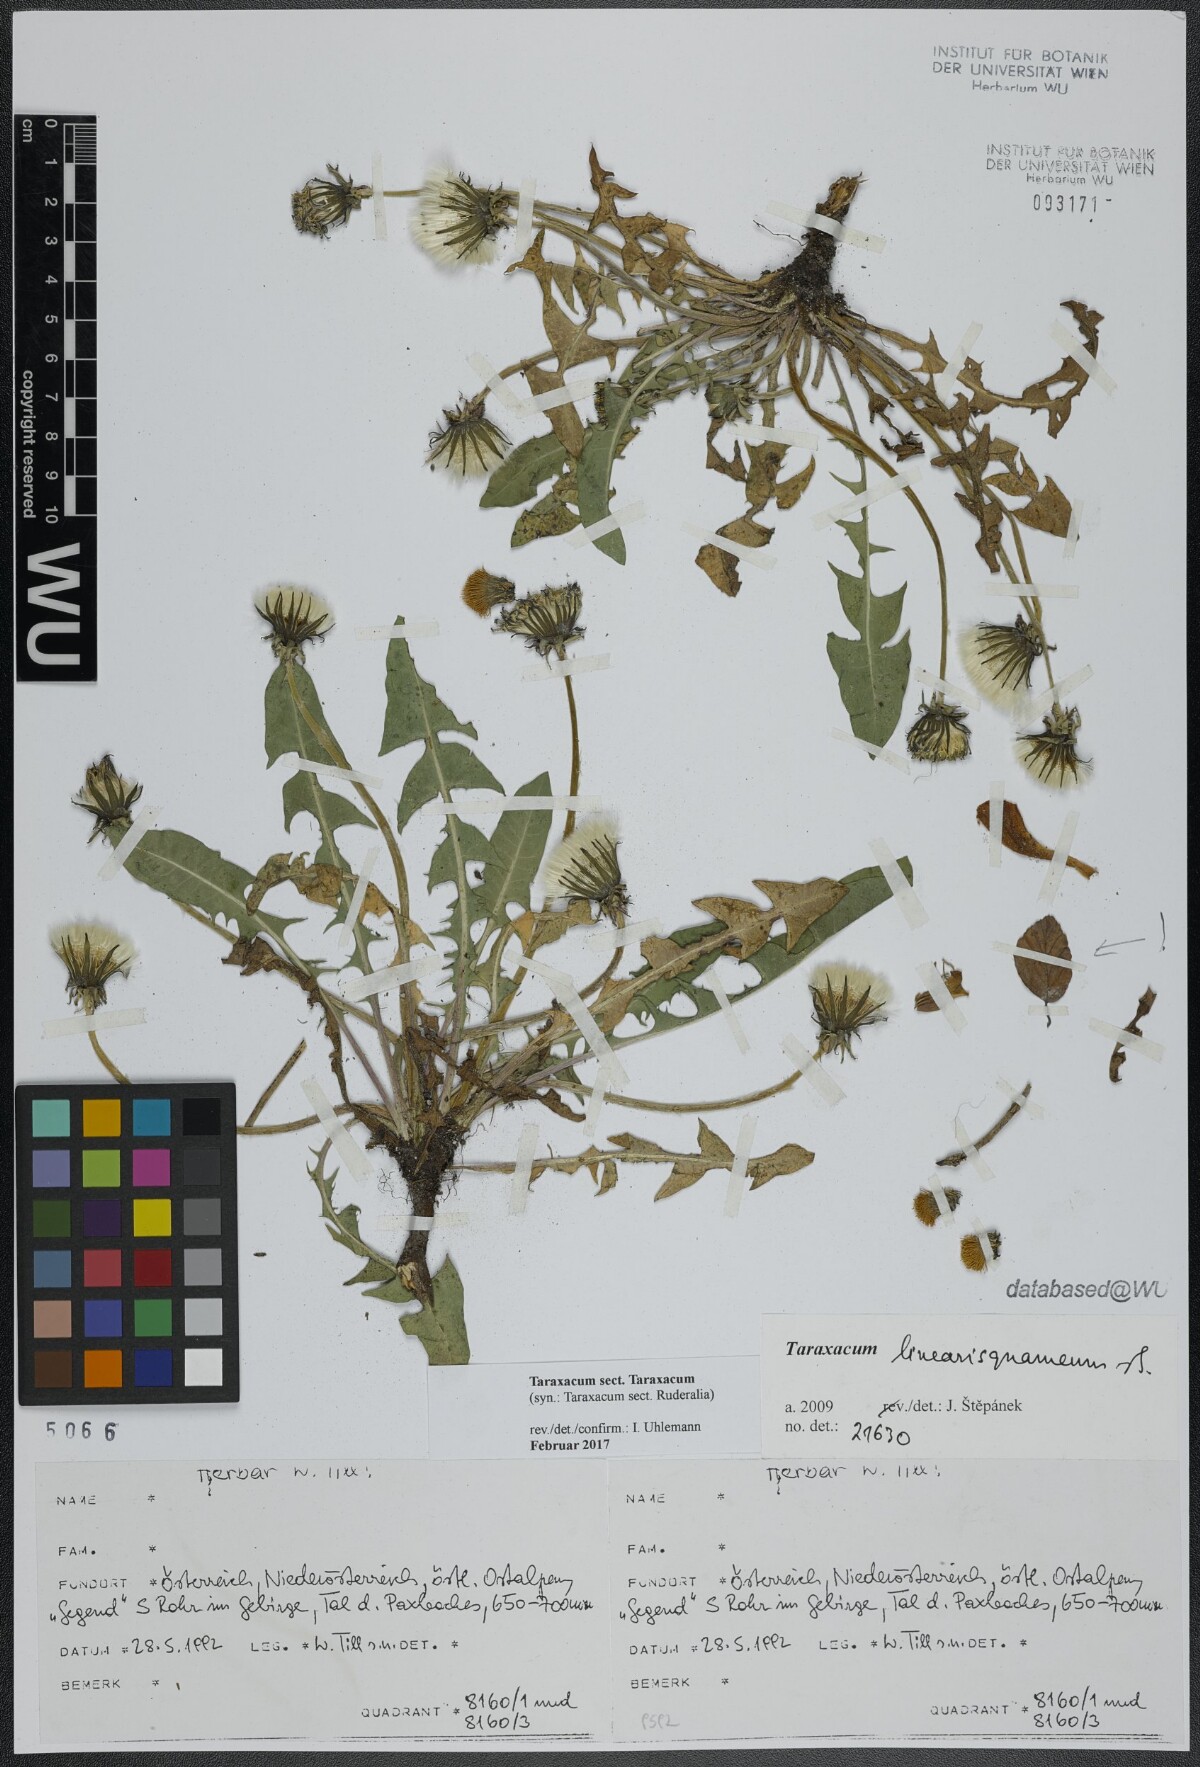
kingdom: Plantae
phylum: Tracheophyta
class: Magnoliopsida
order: Asterales
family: Asteraceae
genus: Taraxacum
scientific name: Taraxacum
